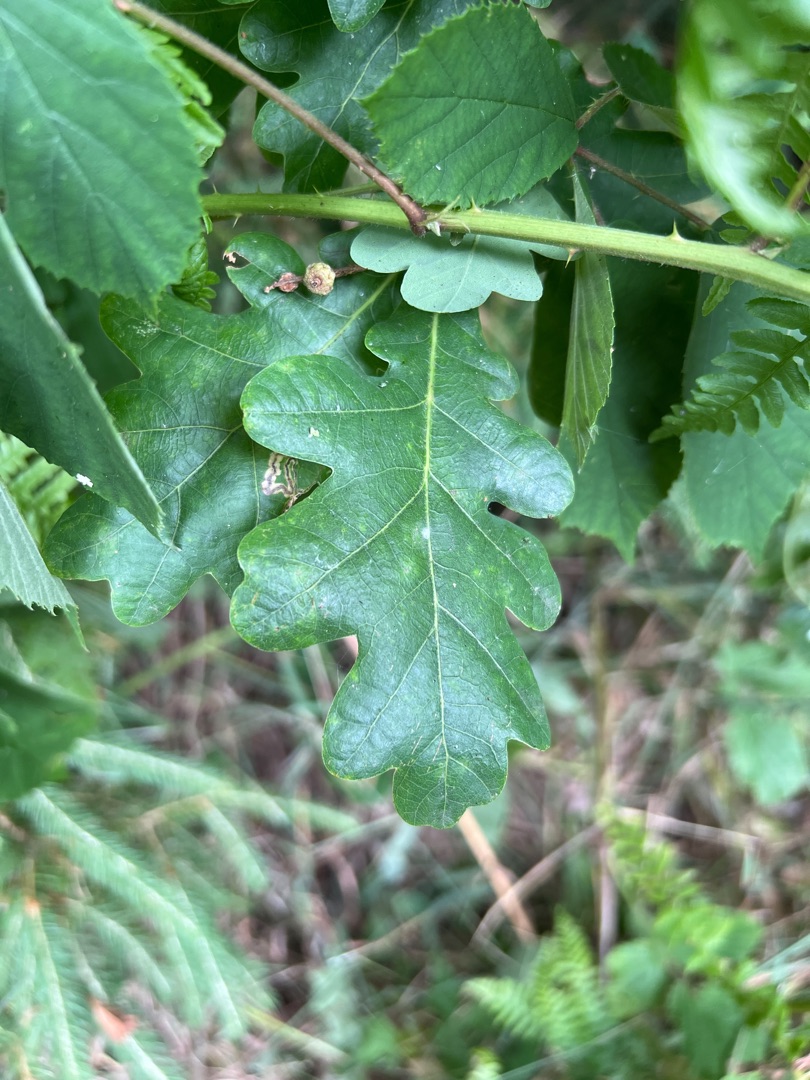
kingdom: Plantae
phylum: Tracheophyta
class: Magnoliopsida
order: Fagales
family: Fagaceae
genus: Quercus
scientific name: Quercus robur
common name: Stilk-eg/almindelig eg
